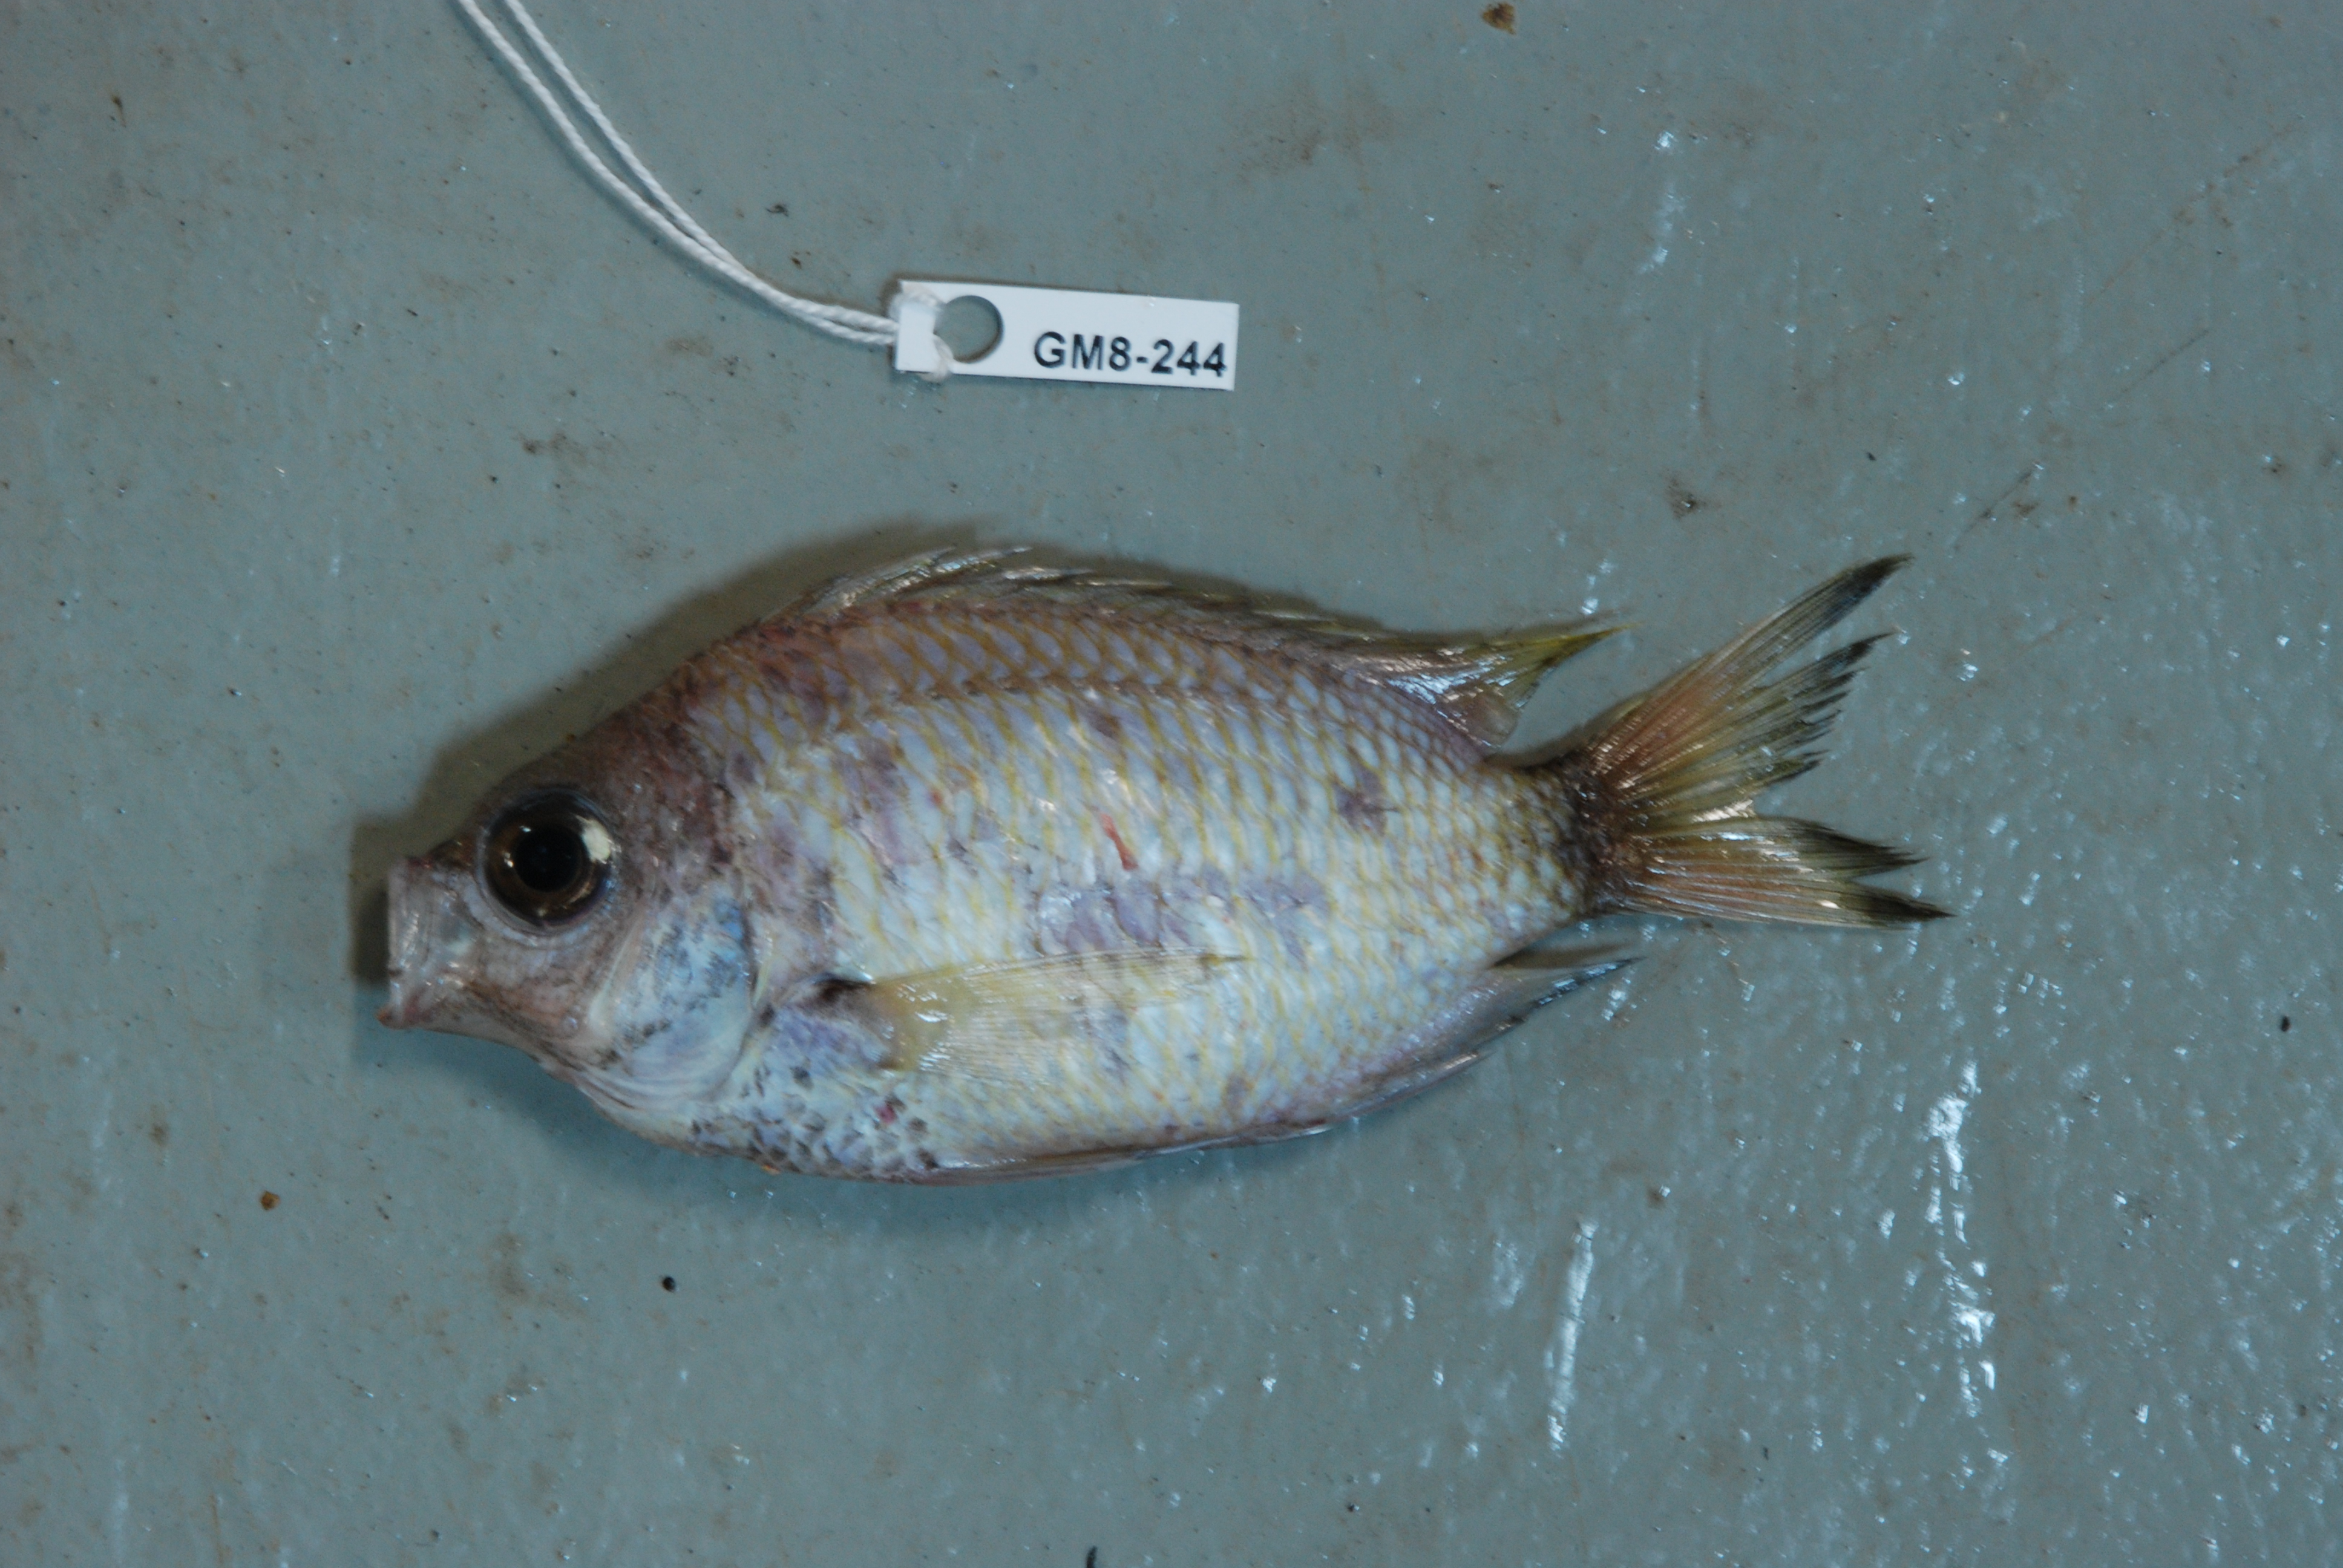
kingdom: Animalia
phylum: Chordata
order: Perciformes
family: Pomacentridae
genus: Chromis
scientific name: Chromis
